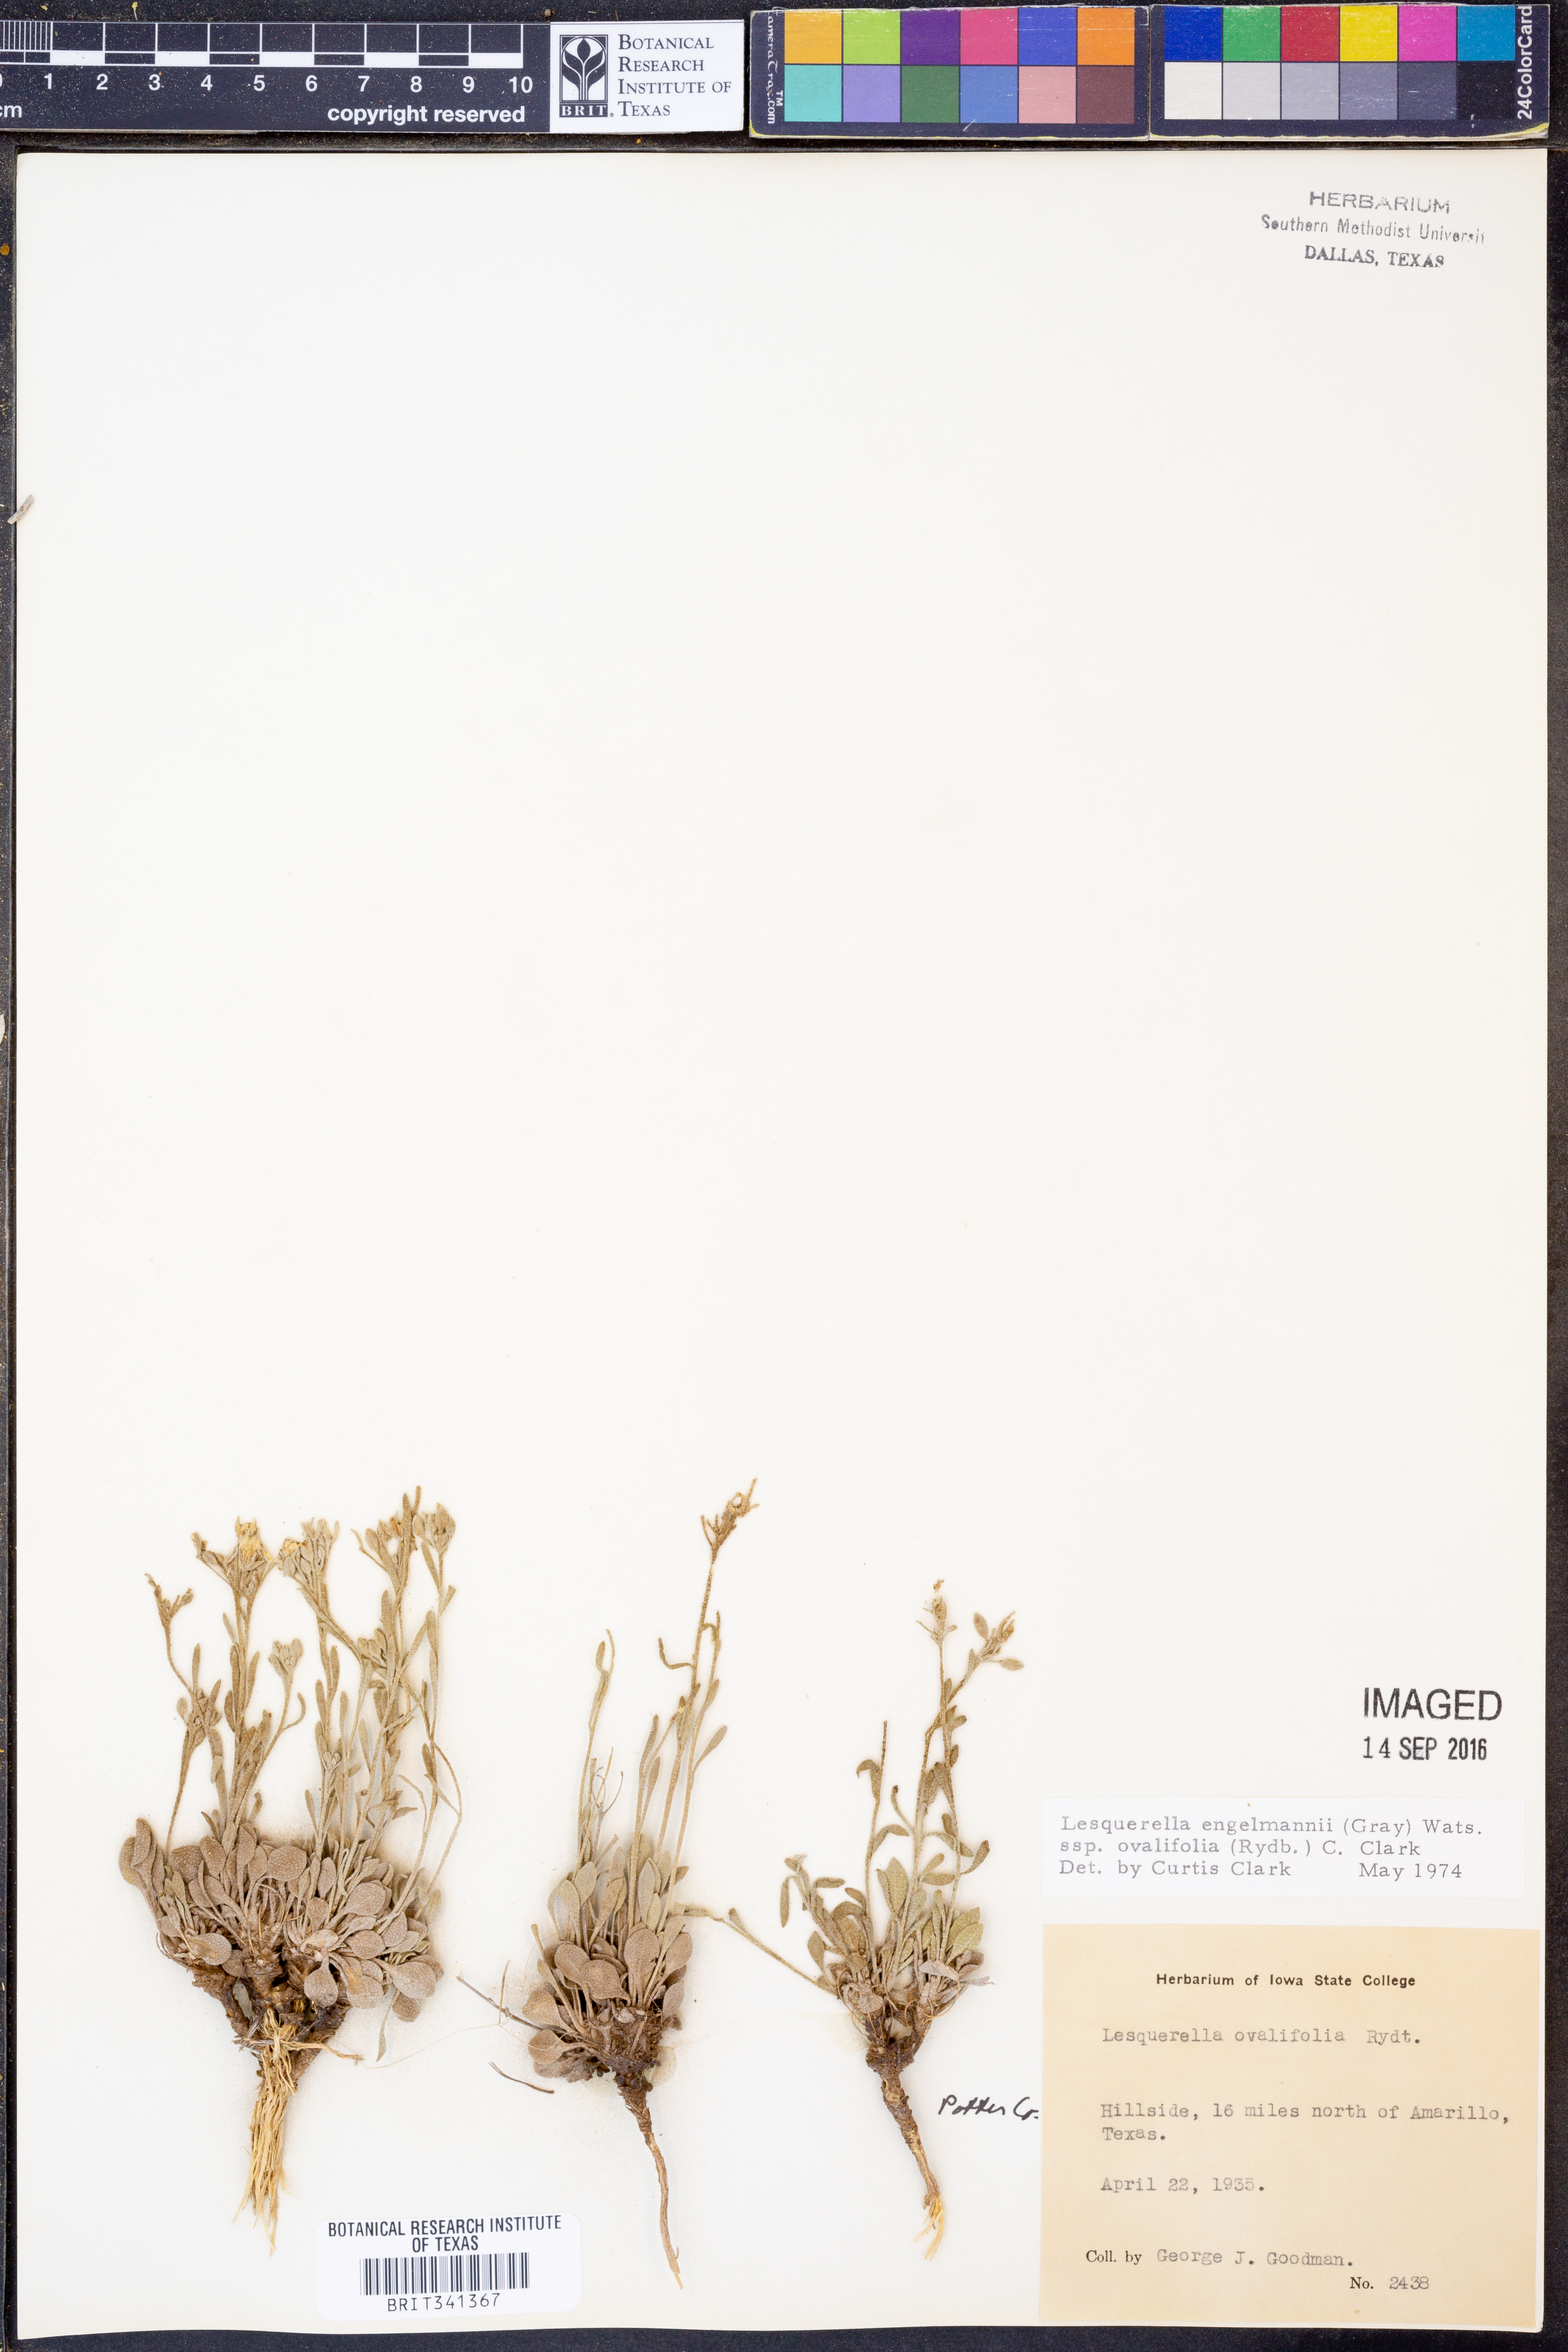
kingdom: Plantae
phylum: Tracheophyta
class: Magnoliopsida
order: Brassicales
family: Brassicaceae
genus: Physaria
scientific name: Physaria ovalifolia
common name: Round-leaf bladderpod
